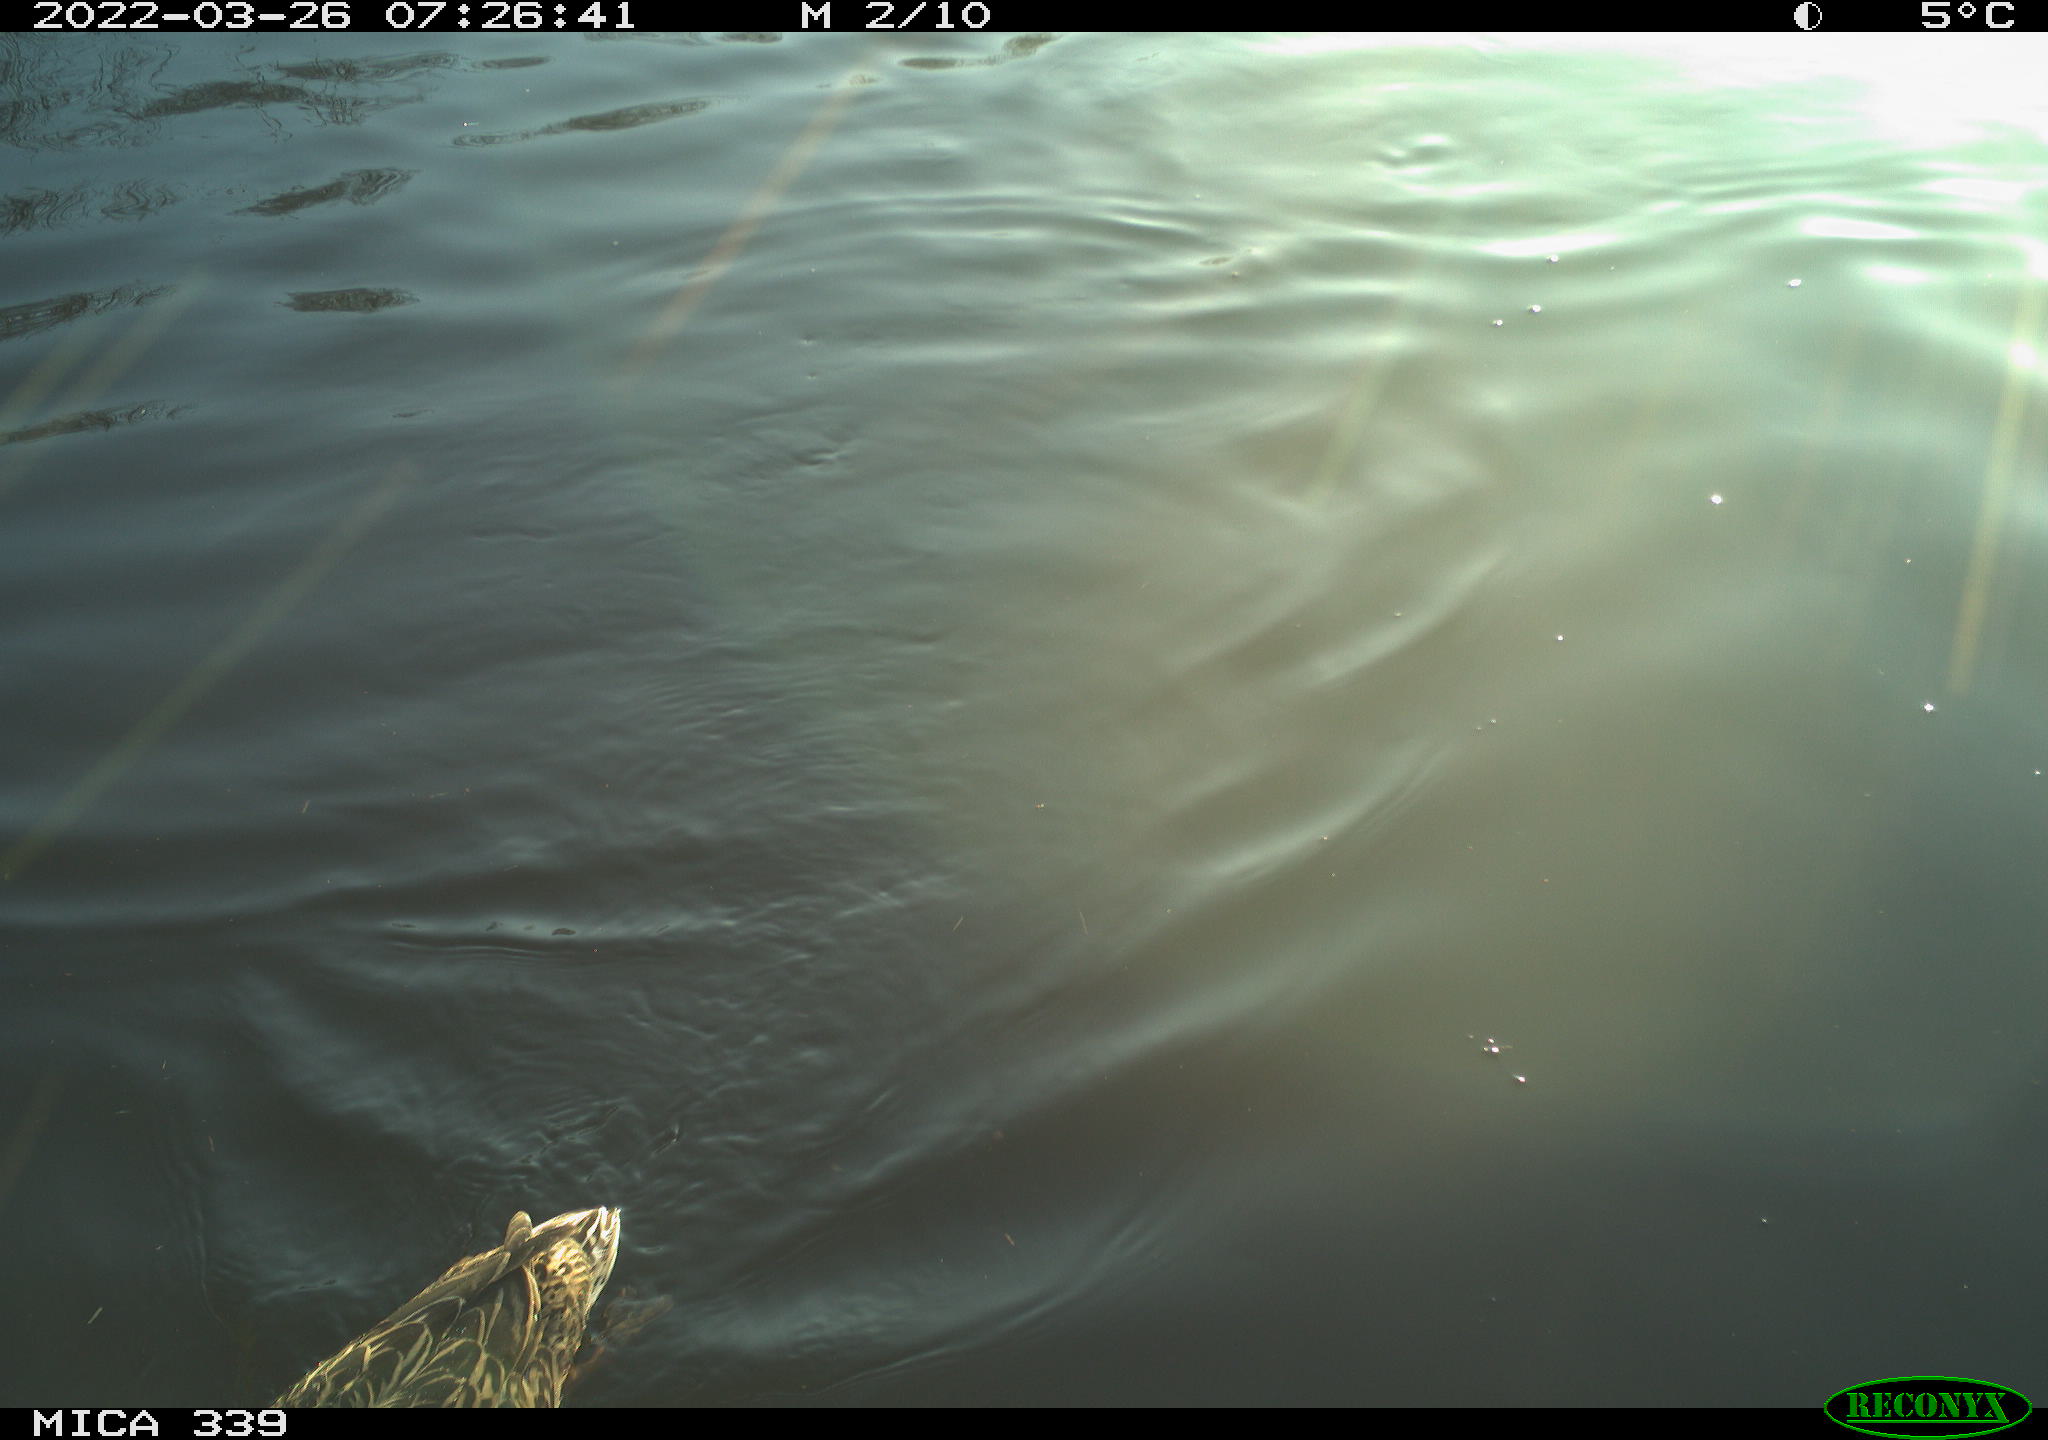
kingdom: Animalia
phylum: Chordata
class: Aves
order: Anseriformes
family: Anatidae
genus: Anas
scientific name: Anas platyrhynchos
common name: Mallard
